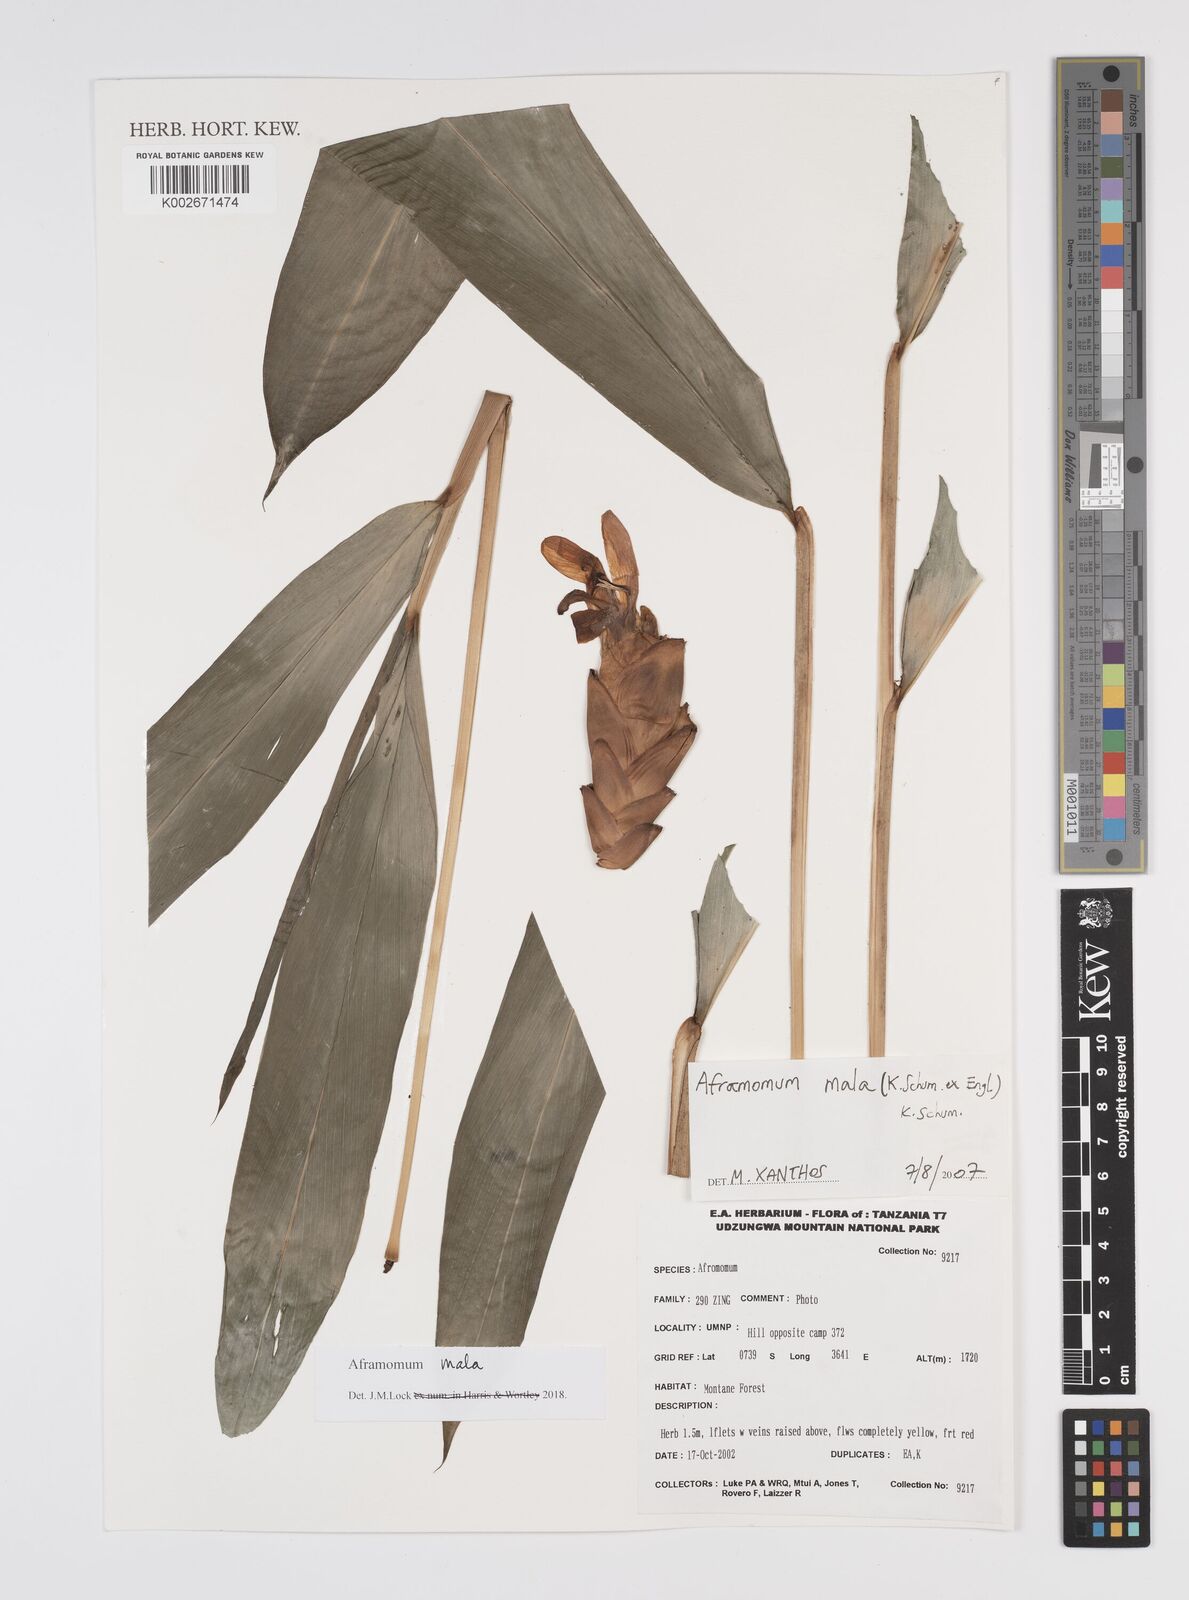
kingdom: Plantae
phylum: Tracheophyta
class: Liliopsida
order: Zingiberales
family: Zingiberaceae
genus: Aframomum
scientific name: Aframomum mala
